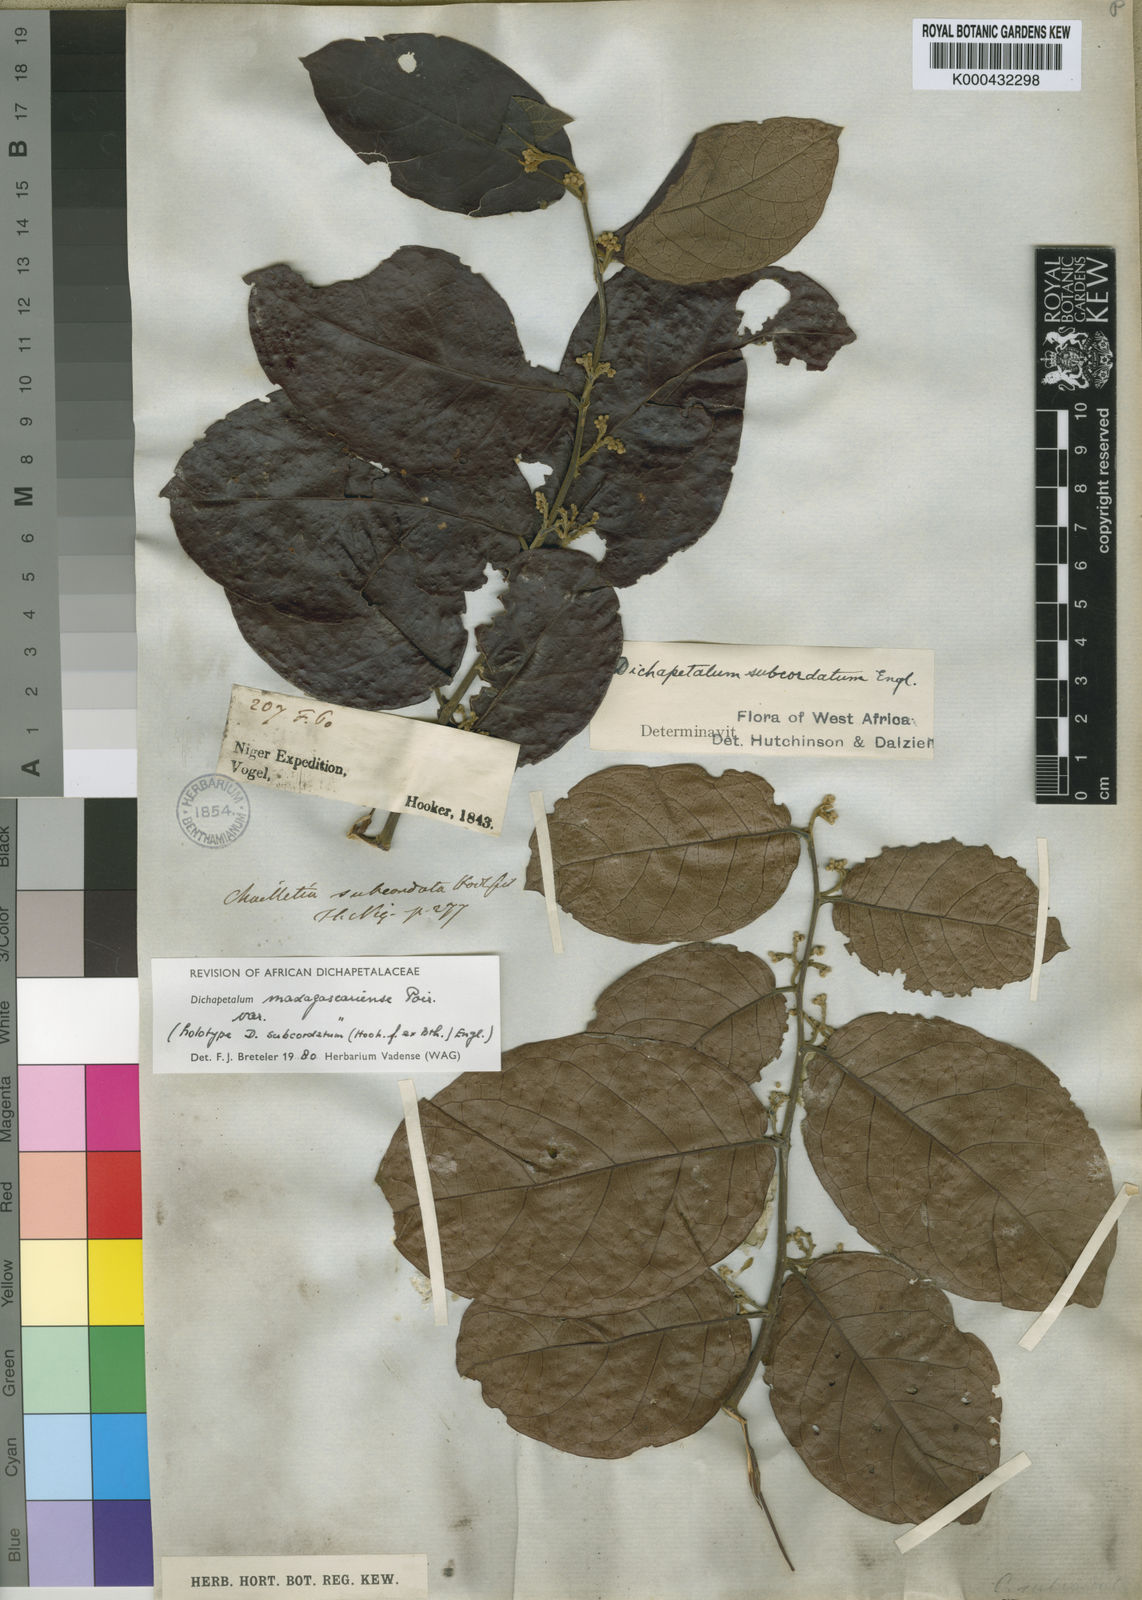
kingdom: Plantae
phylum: Tracheophyta
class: Magnoliopsida
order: Malpighiales
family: Dichapetalaceae
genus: Dichapetalum
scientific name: Dichapetalum madagascariense
